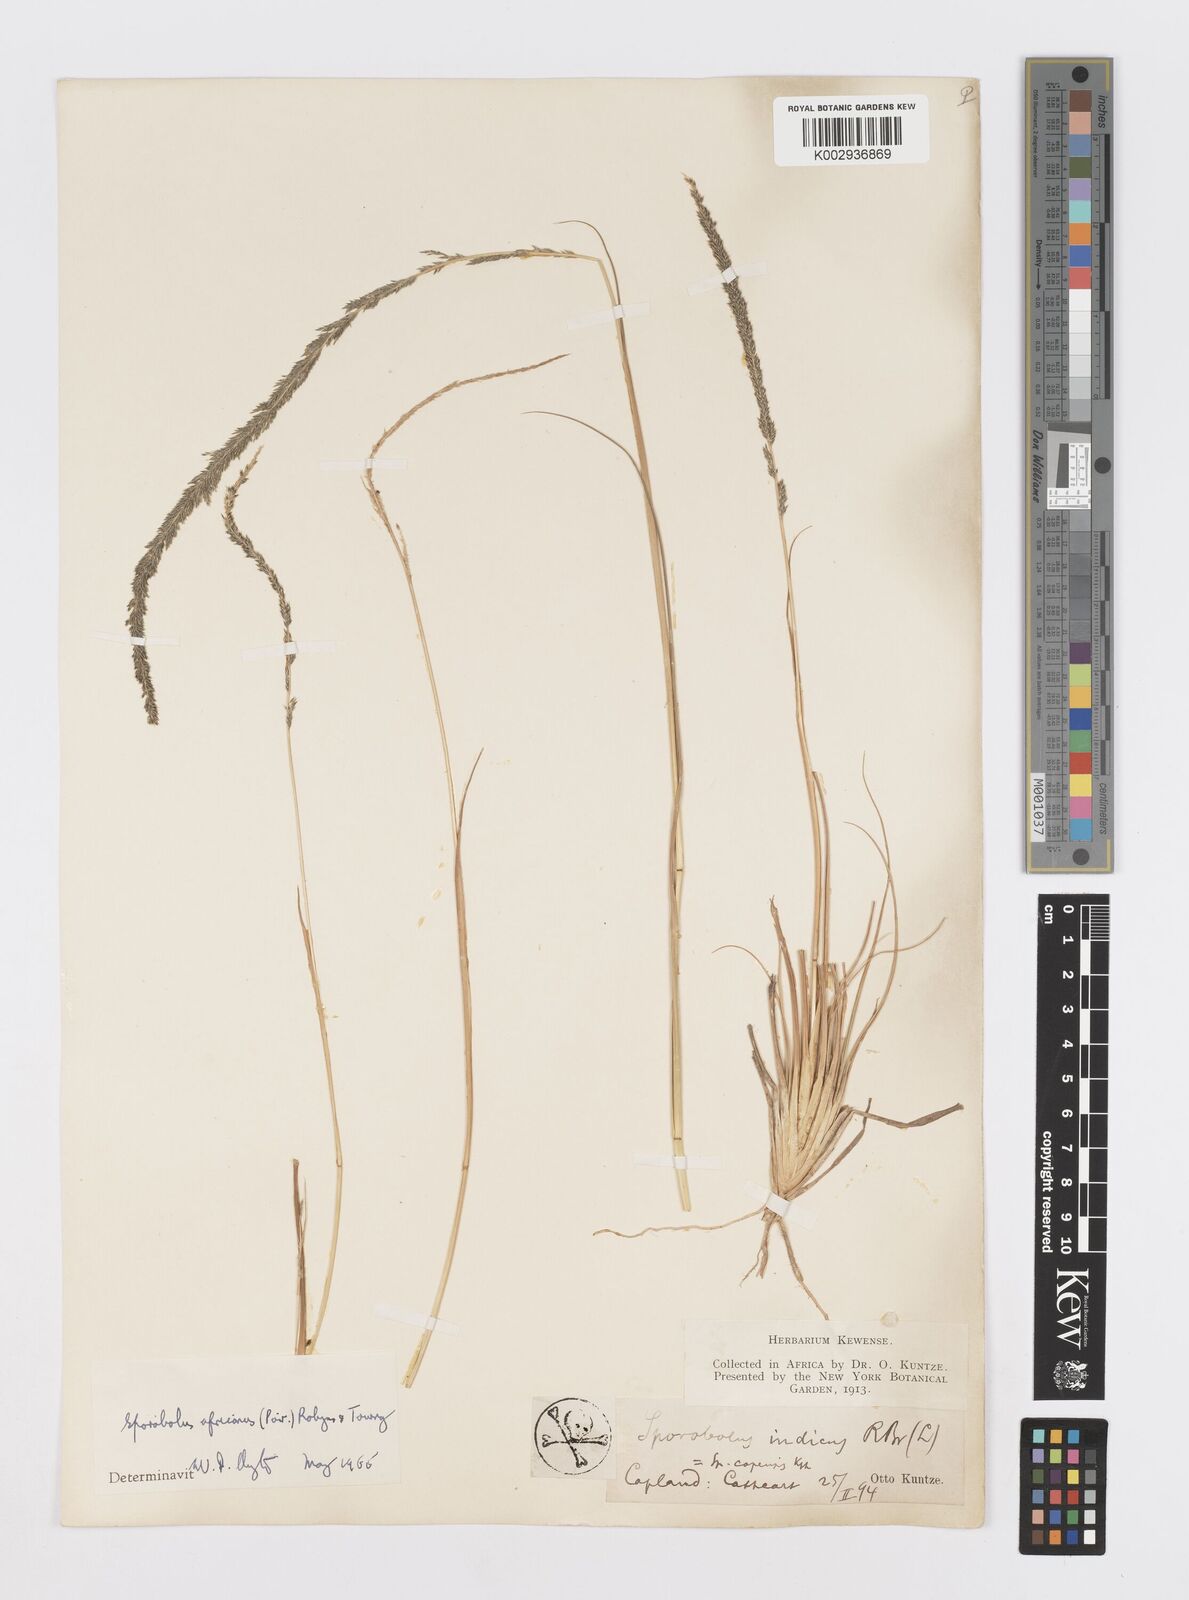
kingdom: Plantae
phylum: Tracheophyta
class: Liliopsida
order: Poales
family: Poaceae
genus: Sporobolus
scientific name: Sporobolus africanus
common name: African dropseed
